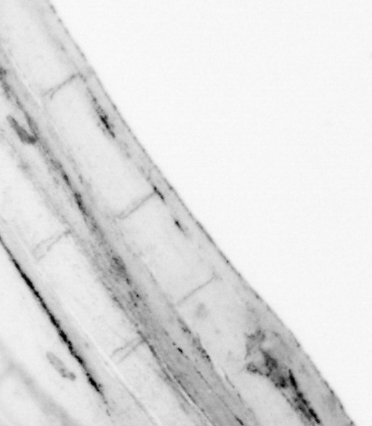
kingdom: Animalia
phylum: Chordata
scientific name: Chordata
